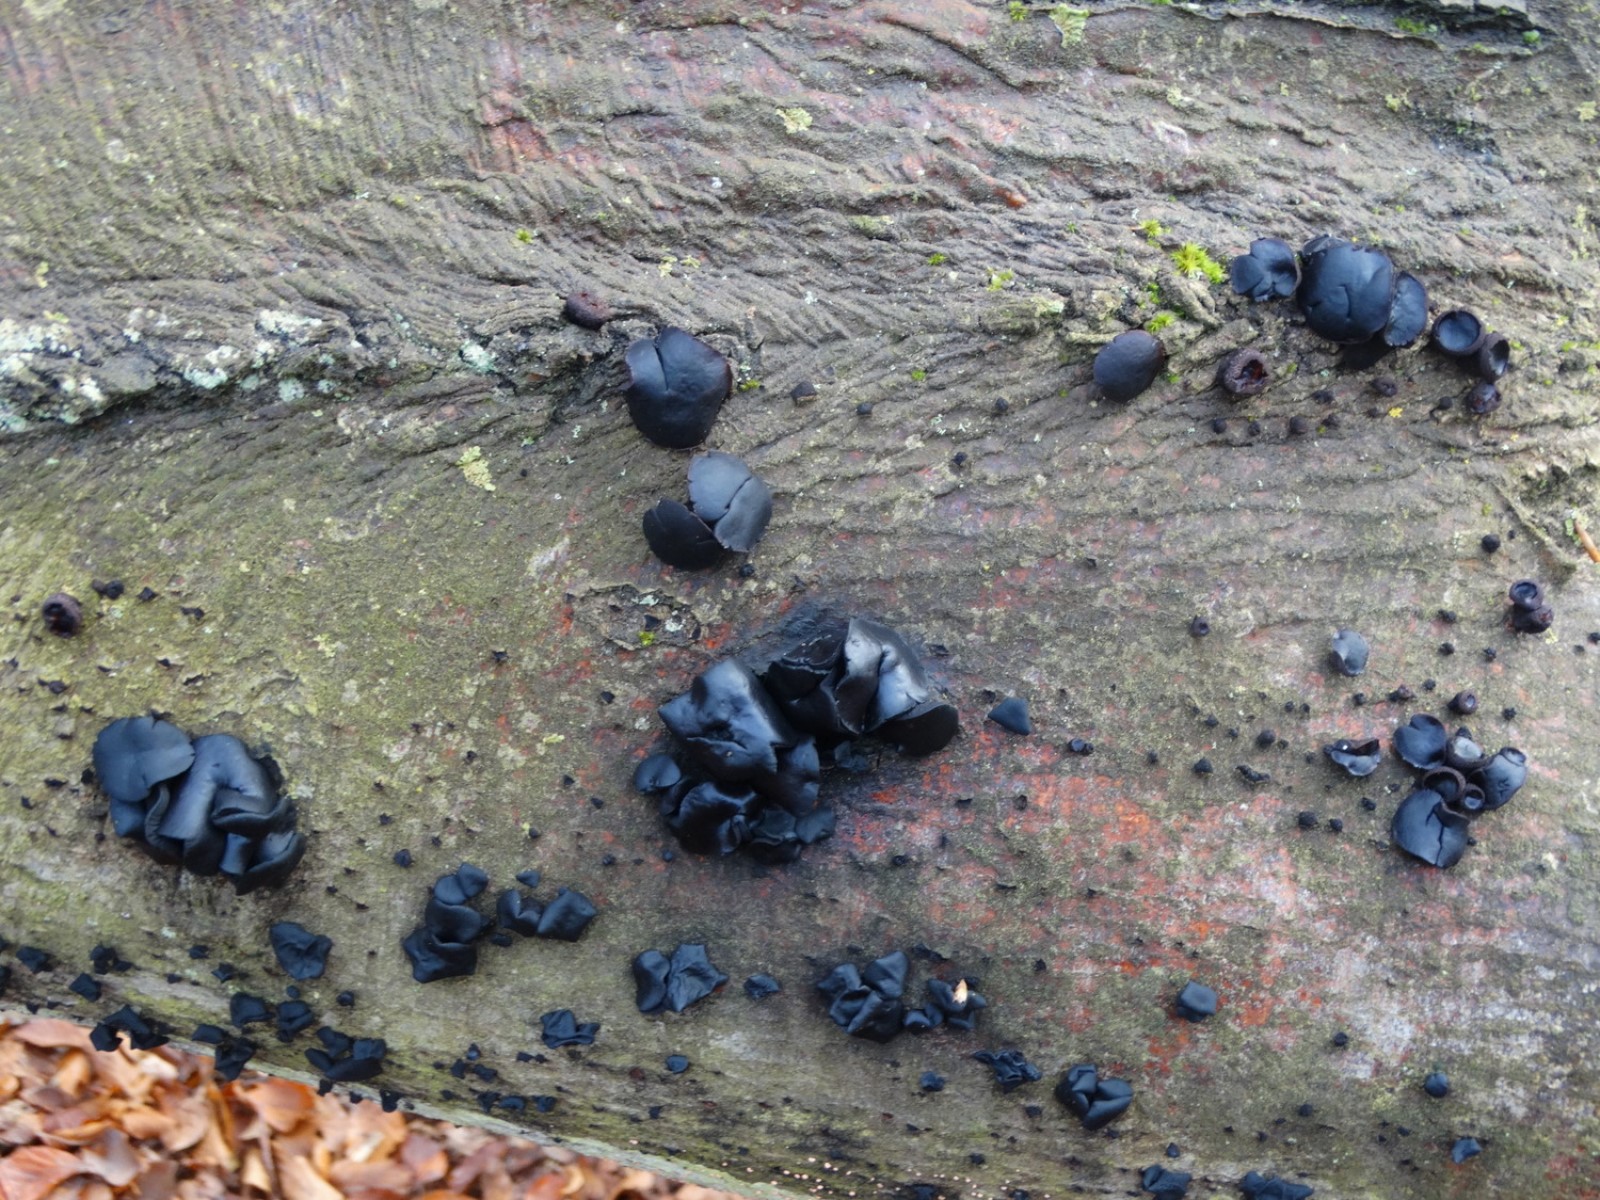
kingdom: Fungi
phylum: Ascomycota
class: Leotiomycetes
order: Phacidiales
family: Phacidiaceae
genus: Bulgaria
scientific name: Bulgaria inquinans
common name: afsmittende topsvamp
